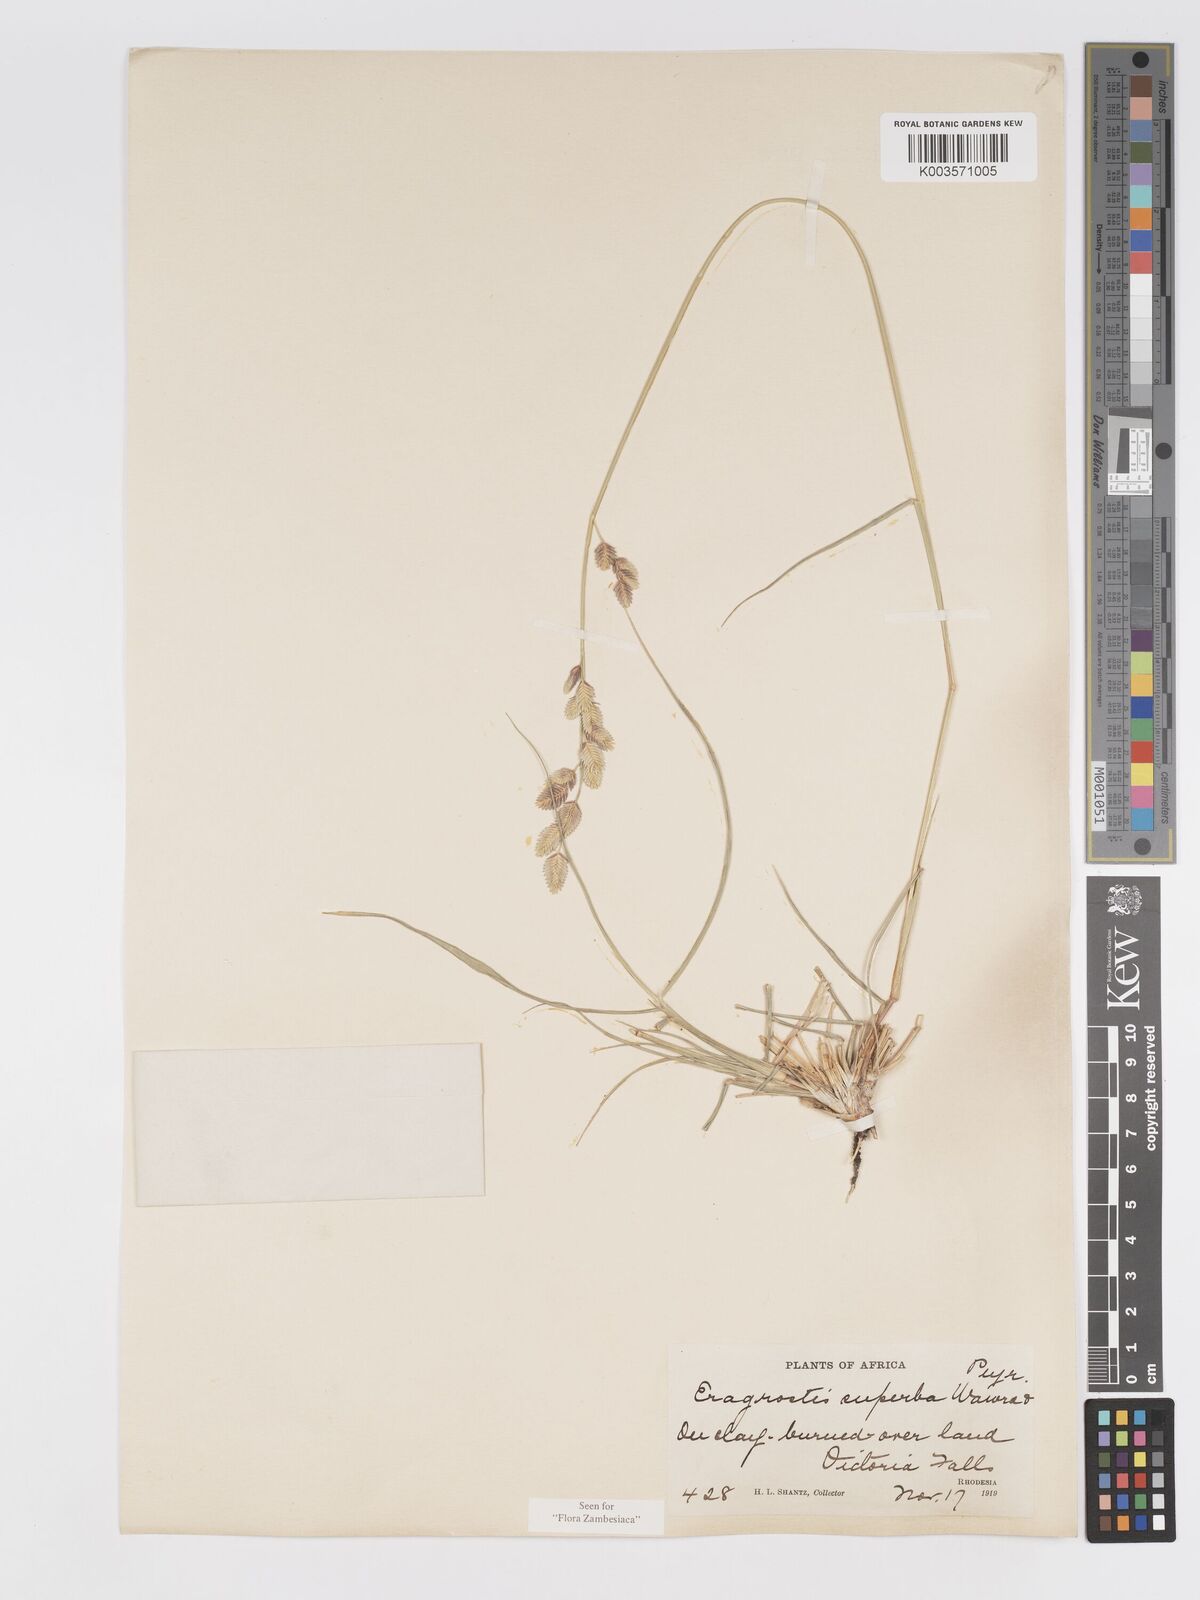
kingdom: Plantae
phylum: Tracheophyta
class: Liliopsida
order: Poales
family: Poaceae
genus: Eragrostis
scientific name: Eragrostis superba
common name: Wilman lovegrass
